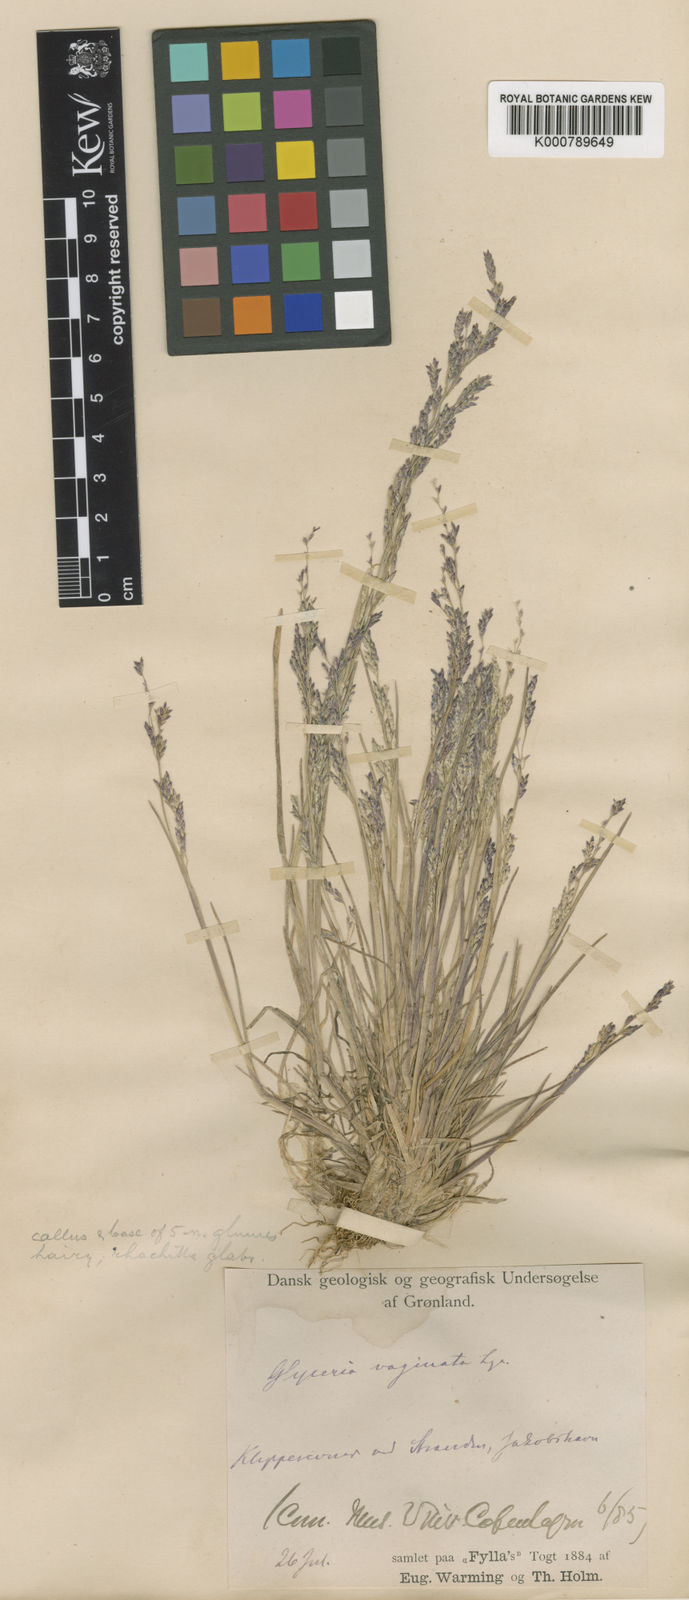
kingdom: Plantae
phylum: Tracheophyta
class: Liliopsida
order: Poales
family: Poaceae
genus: Puccinellia
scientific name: Puccinellia vaginata
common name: Arctic tussock alkaligrass
